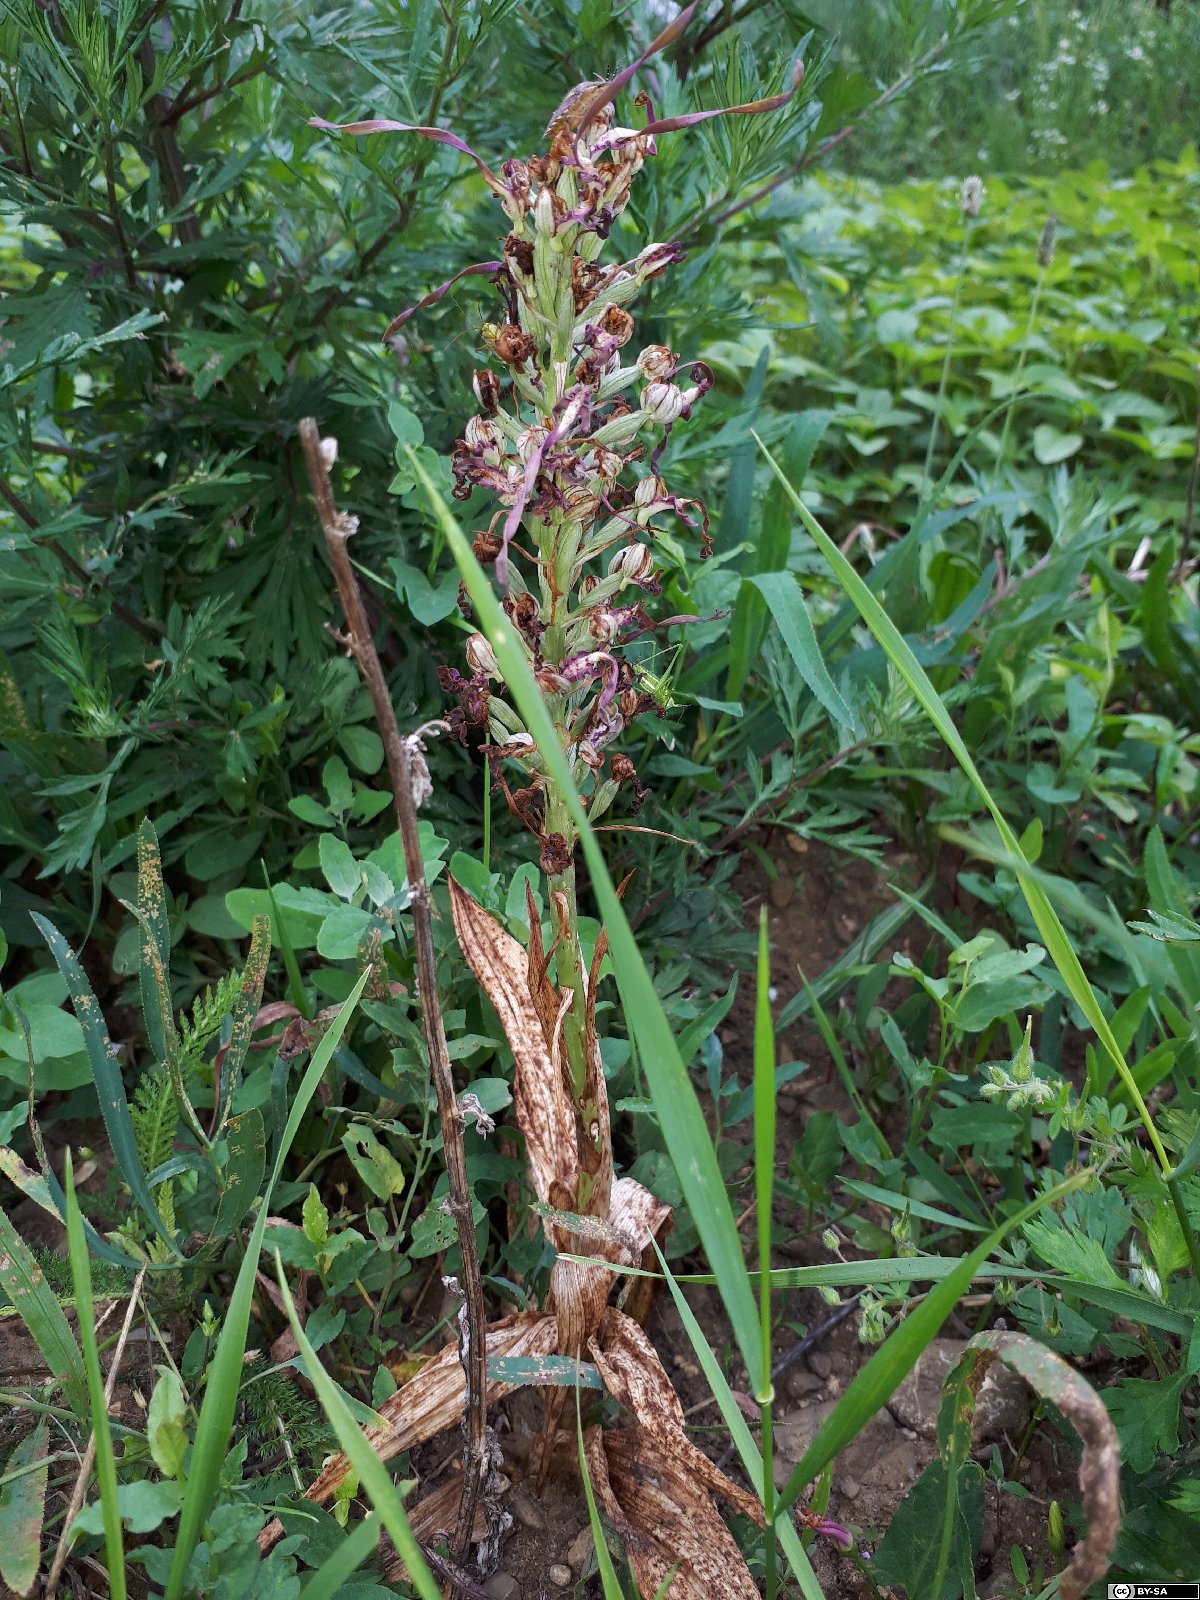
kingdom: Plantae
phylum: Tracheophyta
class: Liliopsida
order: Asparagales
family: Orchidaceae
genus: Himantoglossum
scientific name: Himantoglossum adriaticum
